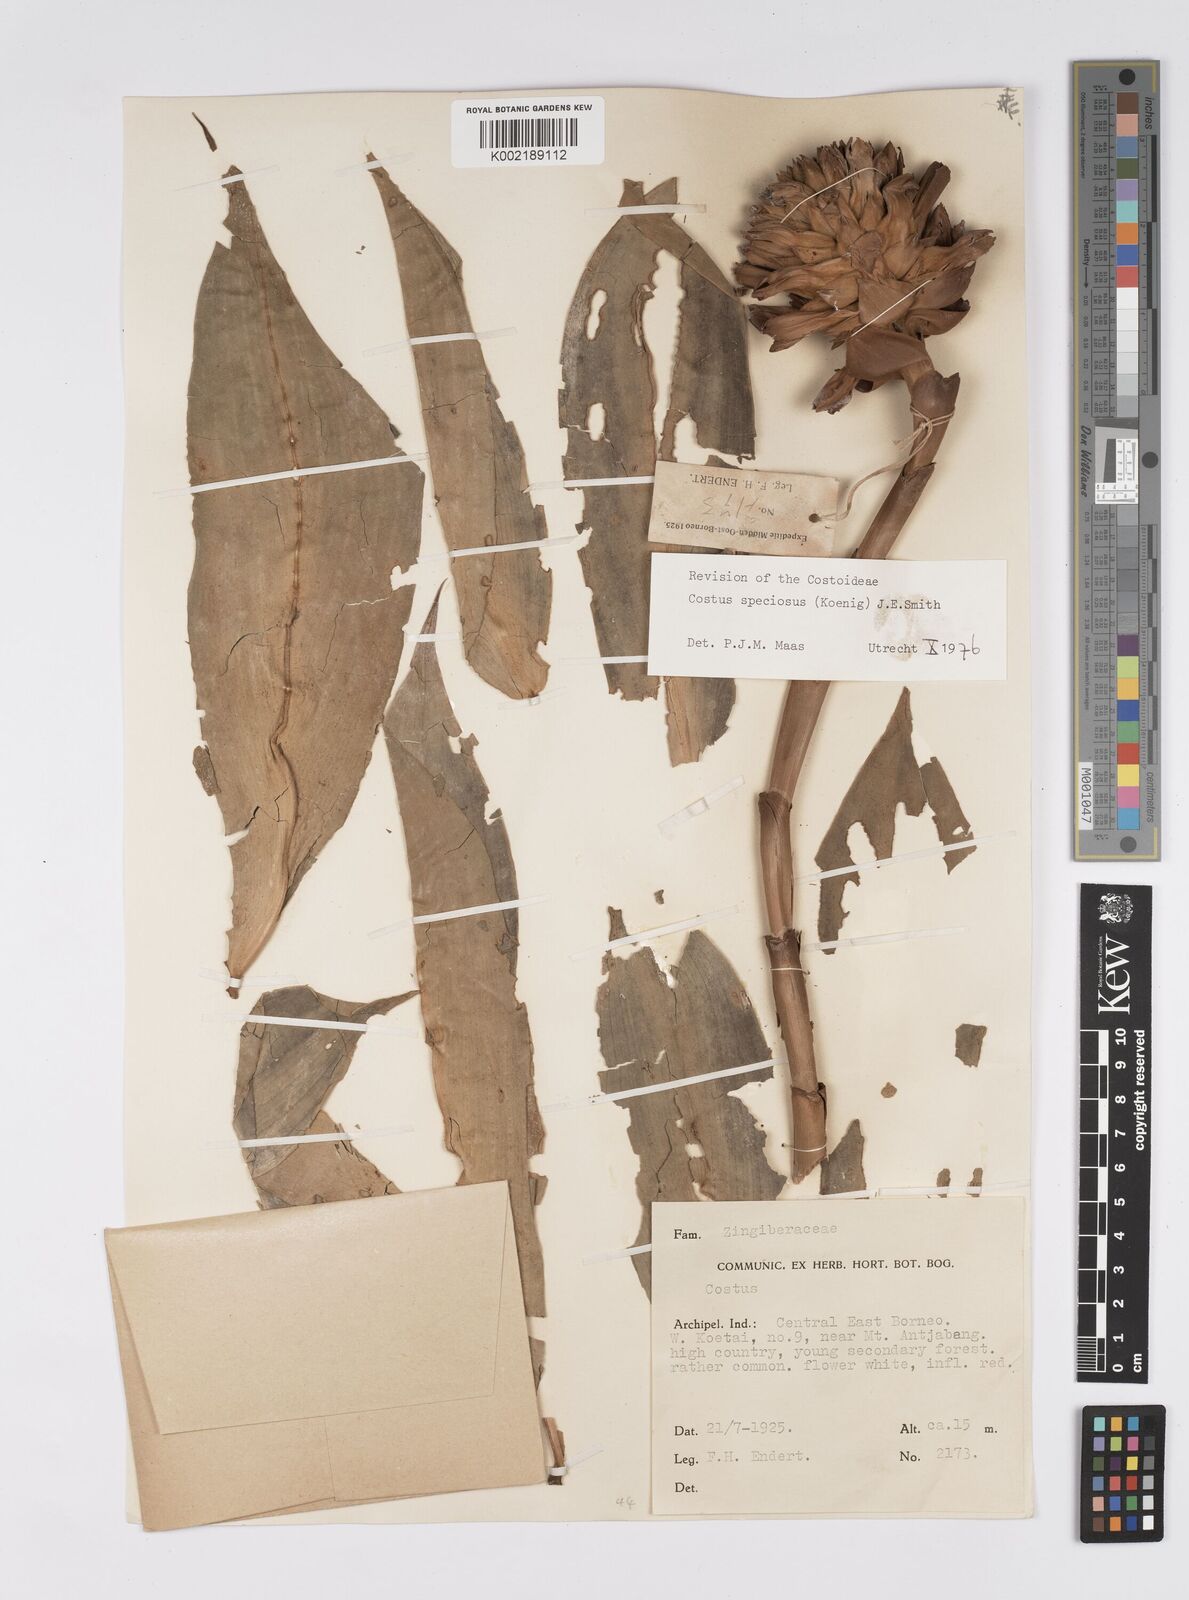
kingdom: Plantae
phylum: Tracheophyta
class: Liliopsida
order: Zingiberales
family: Costaceae
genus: Hellenia
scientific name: Hellenia speciosa
